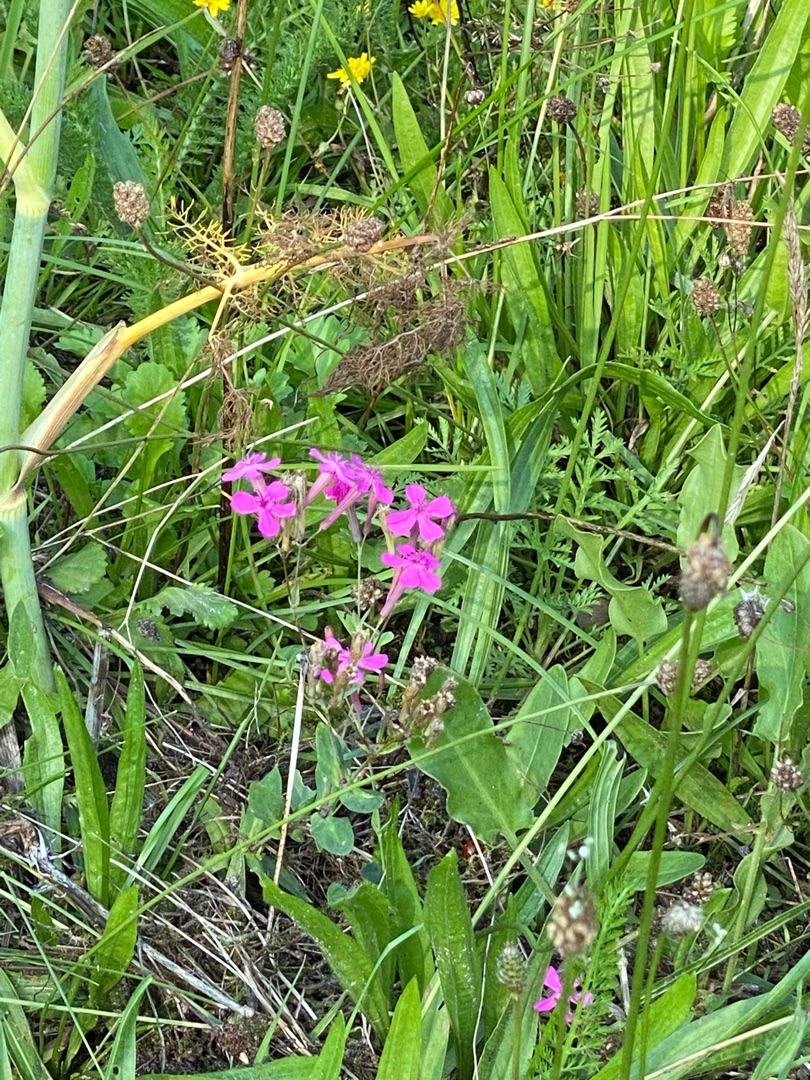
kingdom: Plantae
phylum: Tracheophyta
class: Magnoliopsida
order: Caryophyllales
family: Caryophyllaceae
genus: Atocion
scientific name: Atocion armeria
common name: Knippe-limurt
